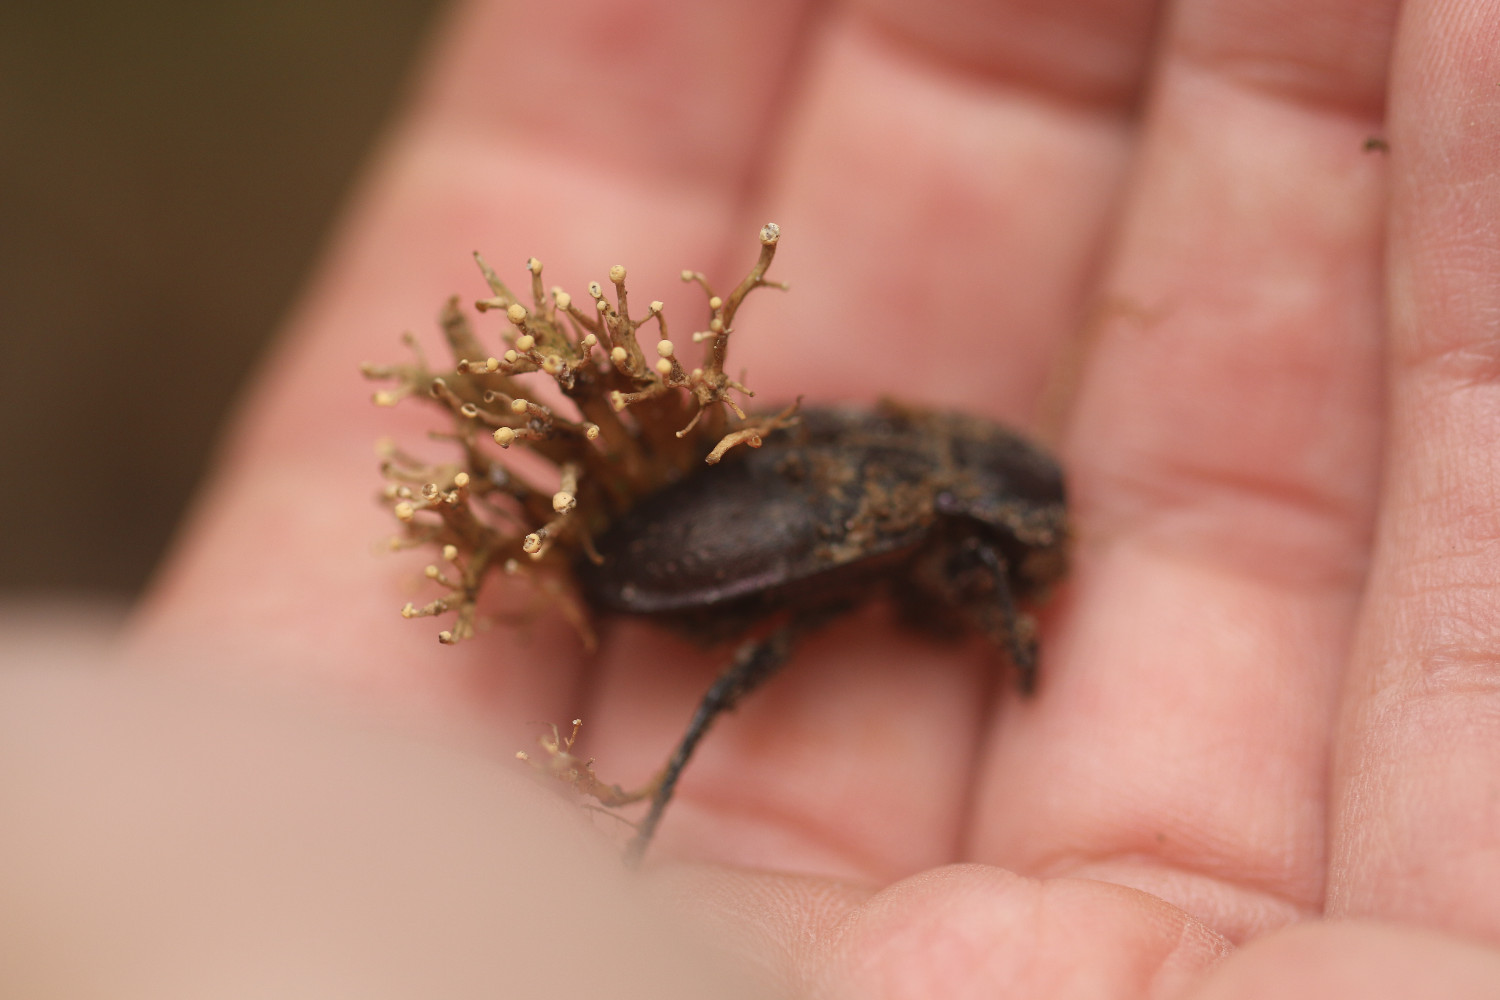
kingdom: Fungi
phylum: Ascomycota
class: Sordariomycetes
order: Hypocreales
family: Ophiocordycipitaceae
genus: Polycephalomyces
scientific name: Polycephalomyces ramosus
